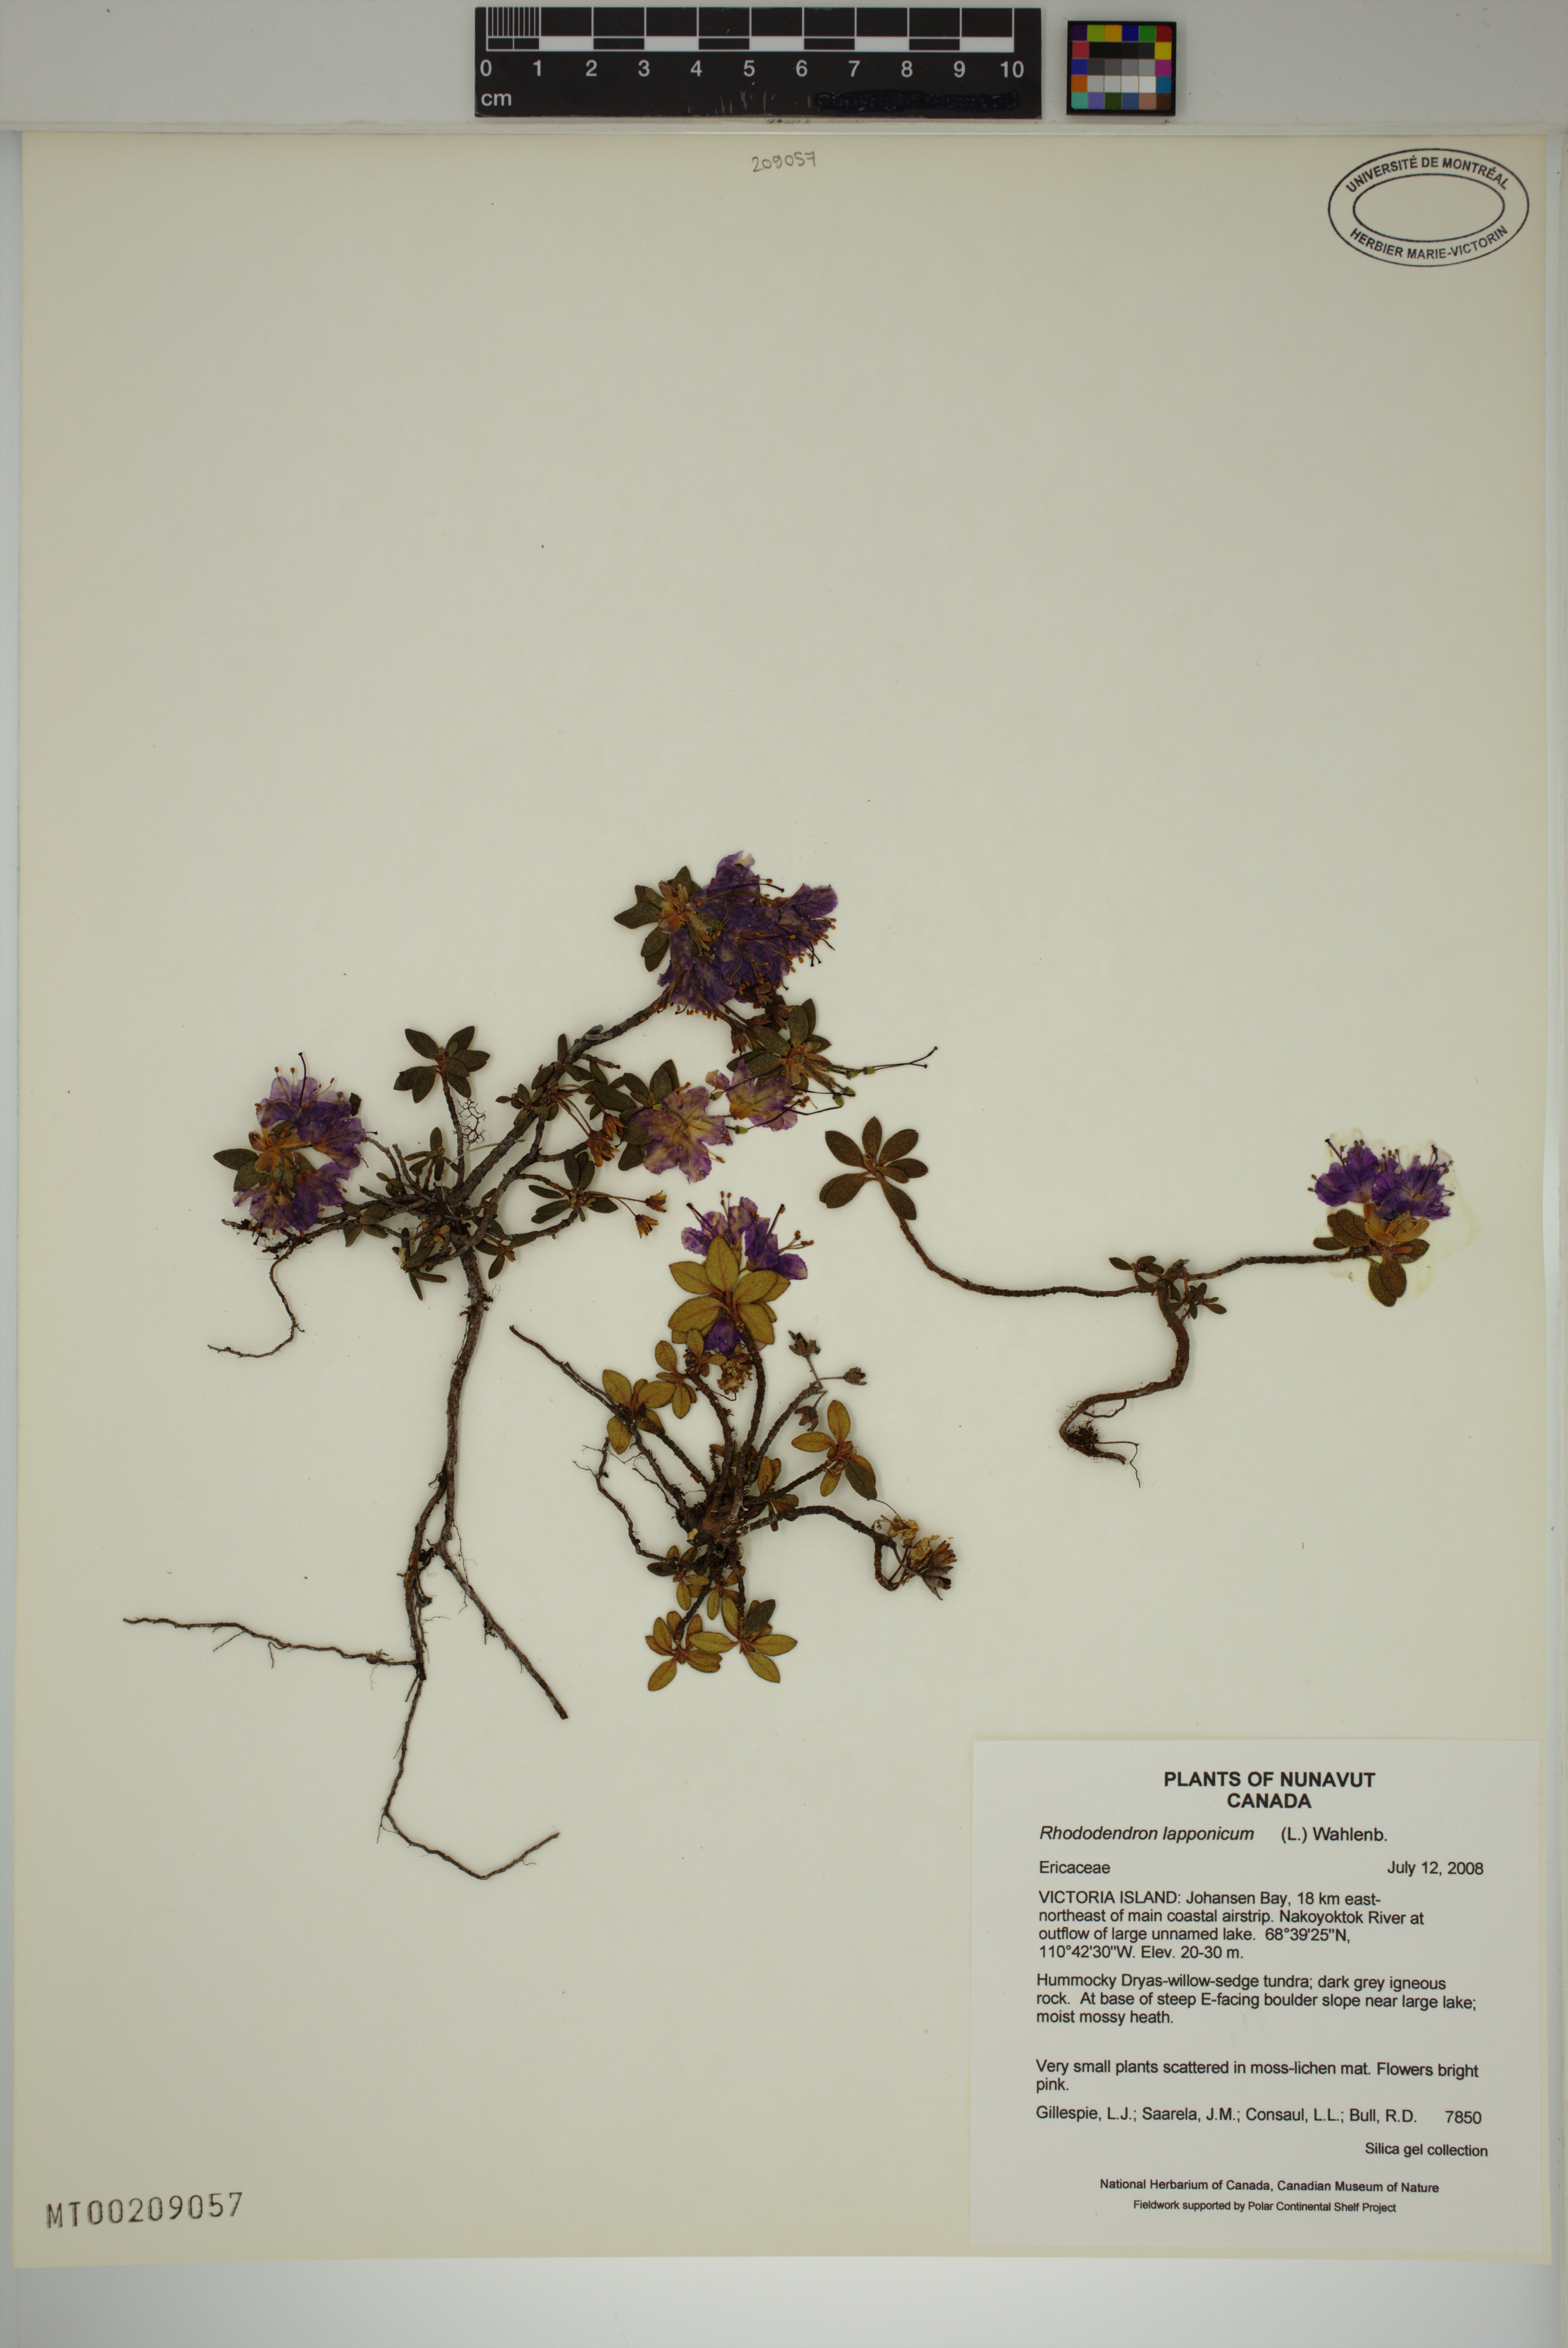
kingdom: Plantae
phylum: Tracheophyta
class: Magnoliopsida
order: Ericales
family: Ericaceae
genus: Rhododendron
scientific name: Rhododendron lapponicum
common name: Lapland rhododendron
